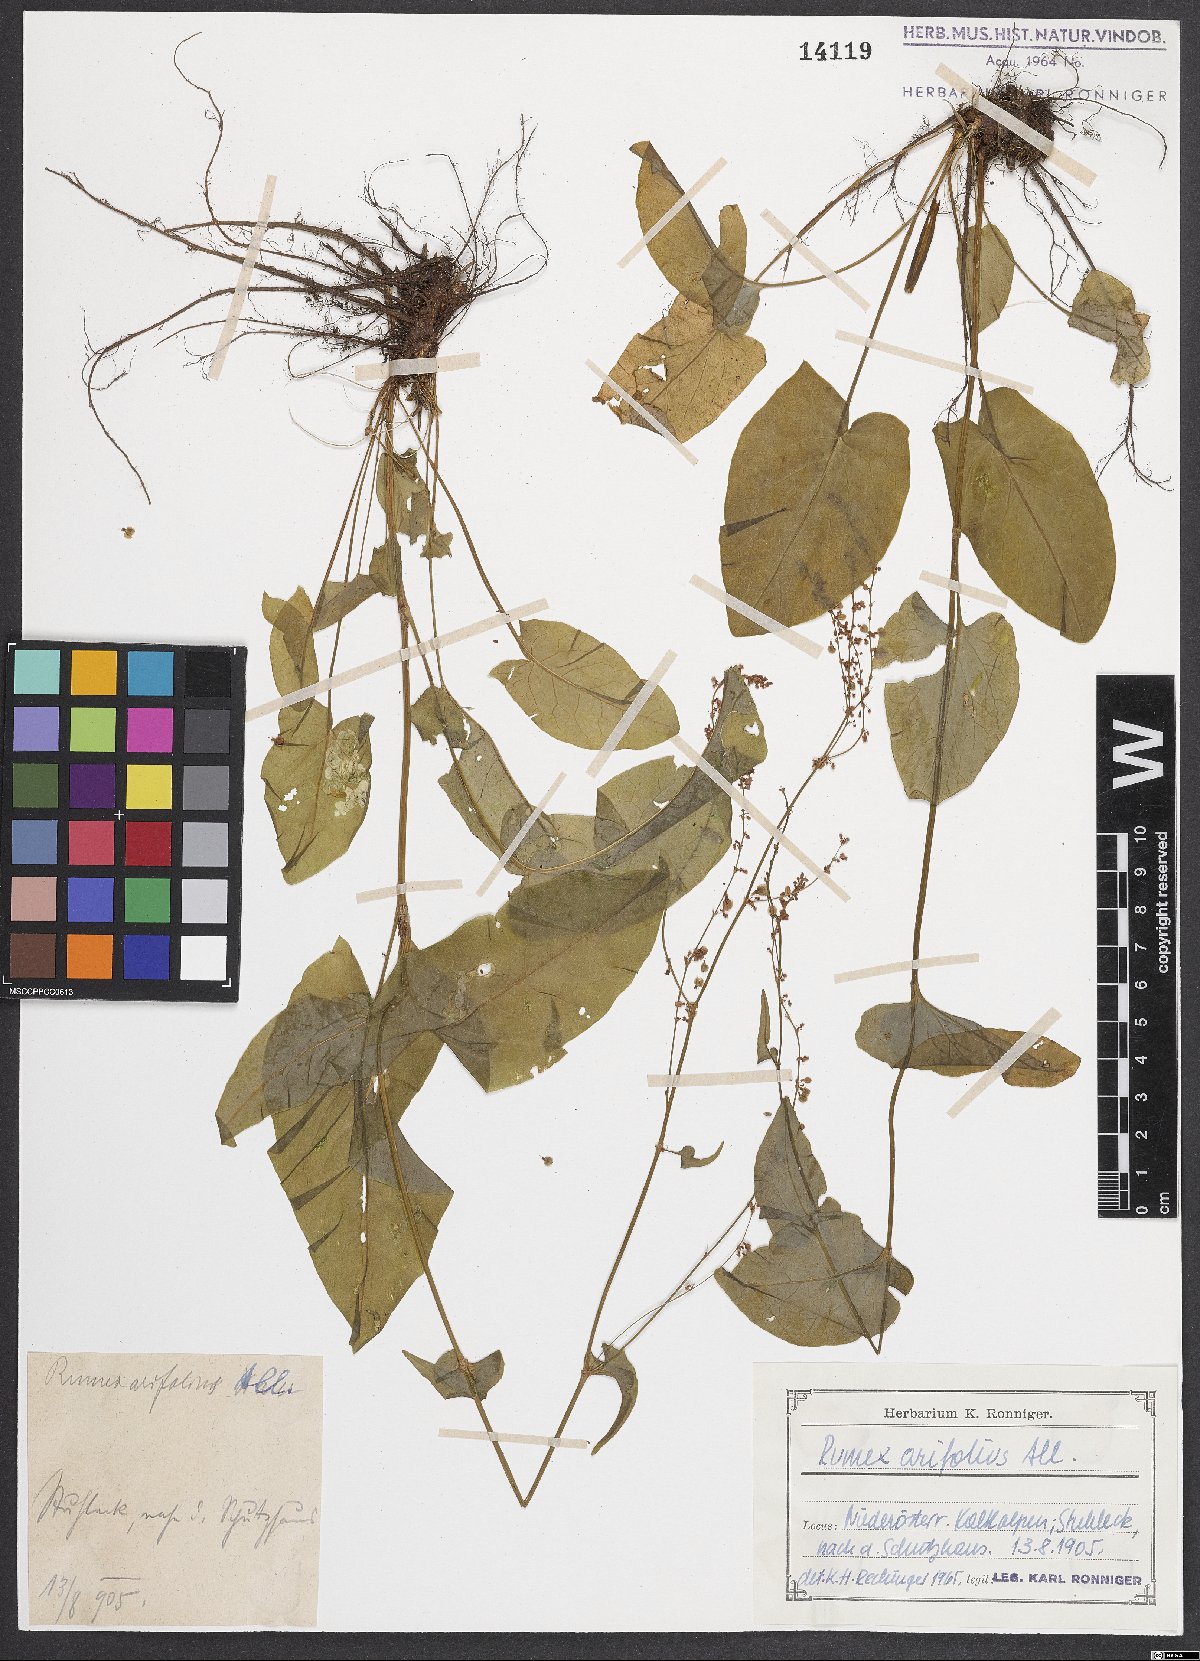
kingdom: Plantae
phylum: Tracheophyta
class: Magnoliopsida
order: Caryophyllales
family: Polygonaceae
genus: Rumex
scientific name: Rumex arifolius
